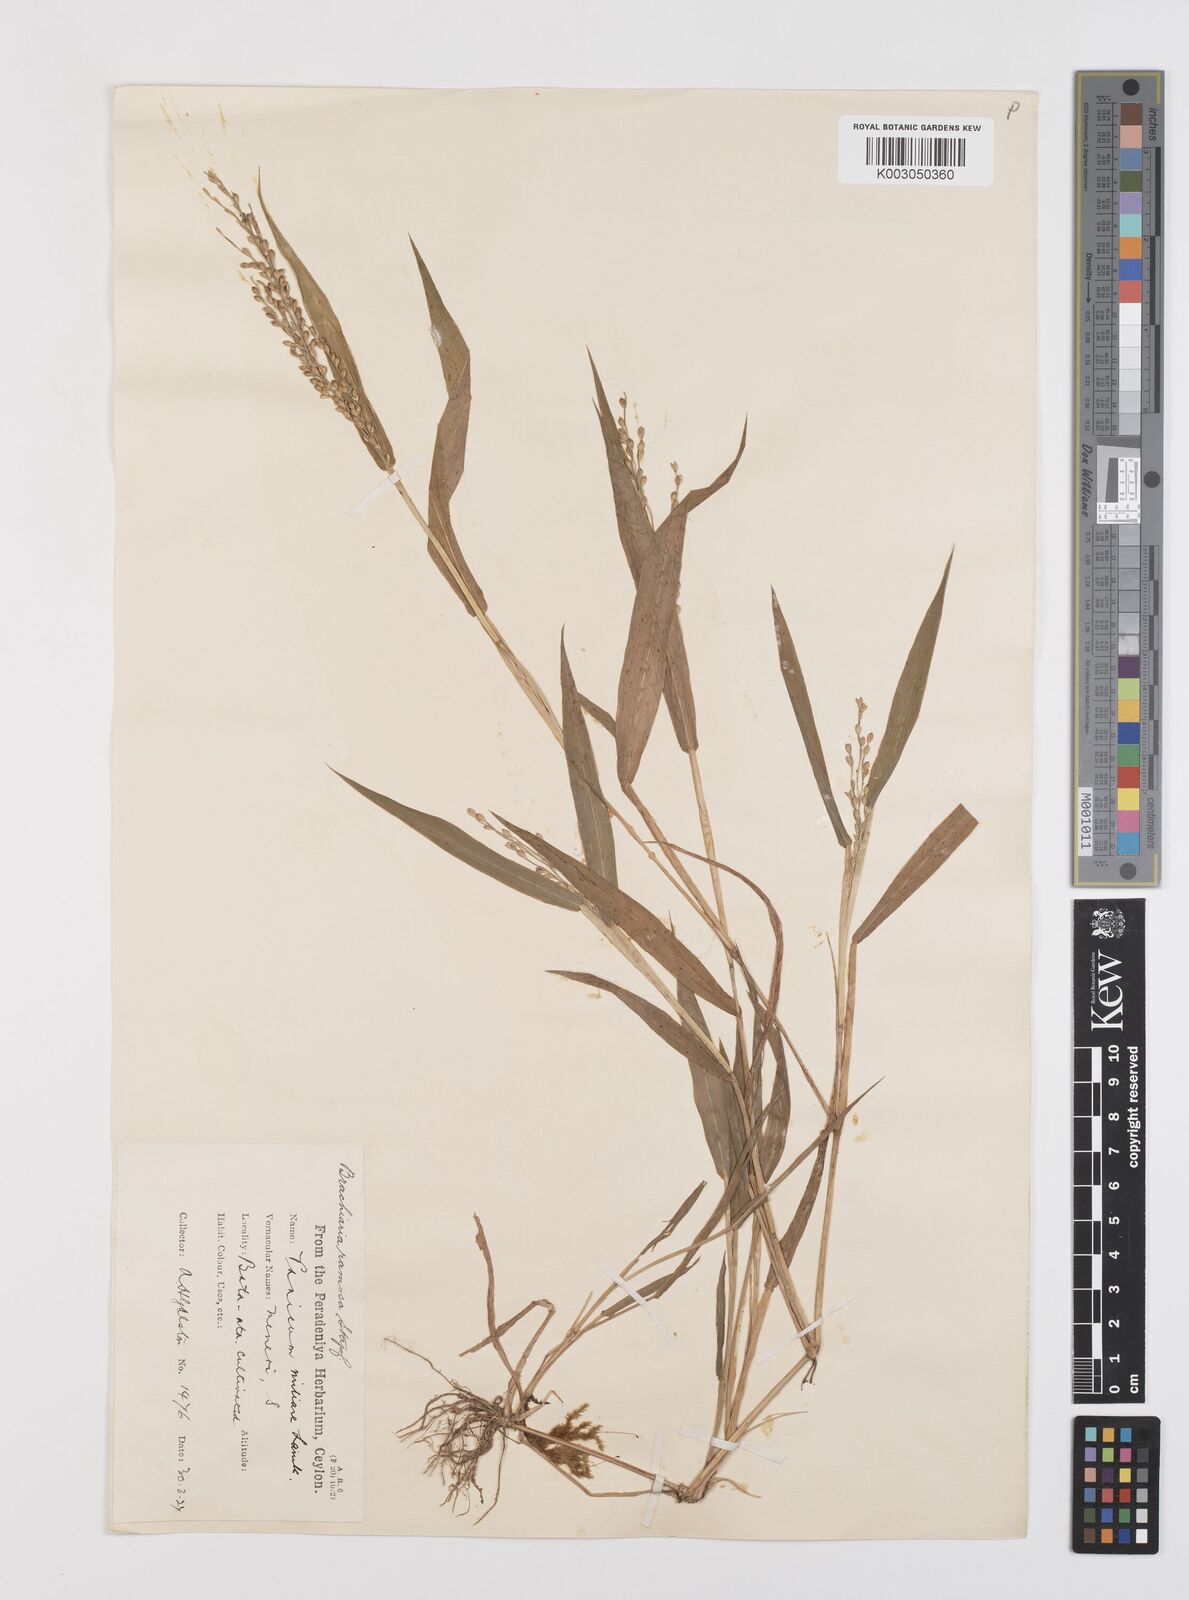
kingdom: Plantae
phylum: Tracheophyta
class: Liliopsida
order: Poales
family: Poaceae
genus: Urochloa
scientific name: Urochloa ramosa
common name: Browntop millet
